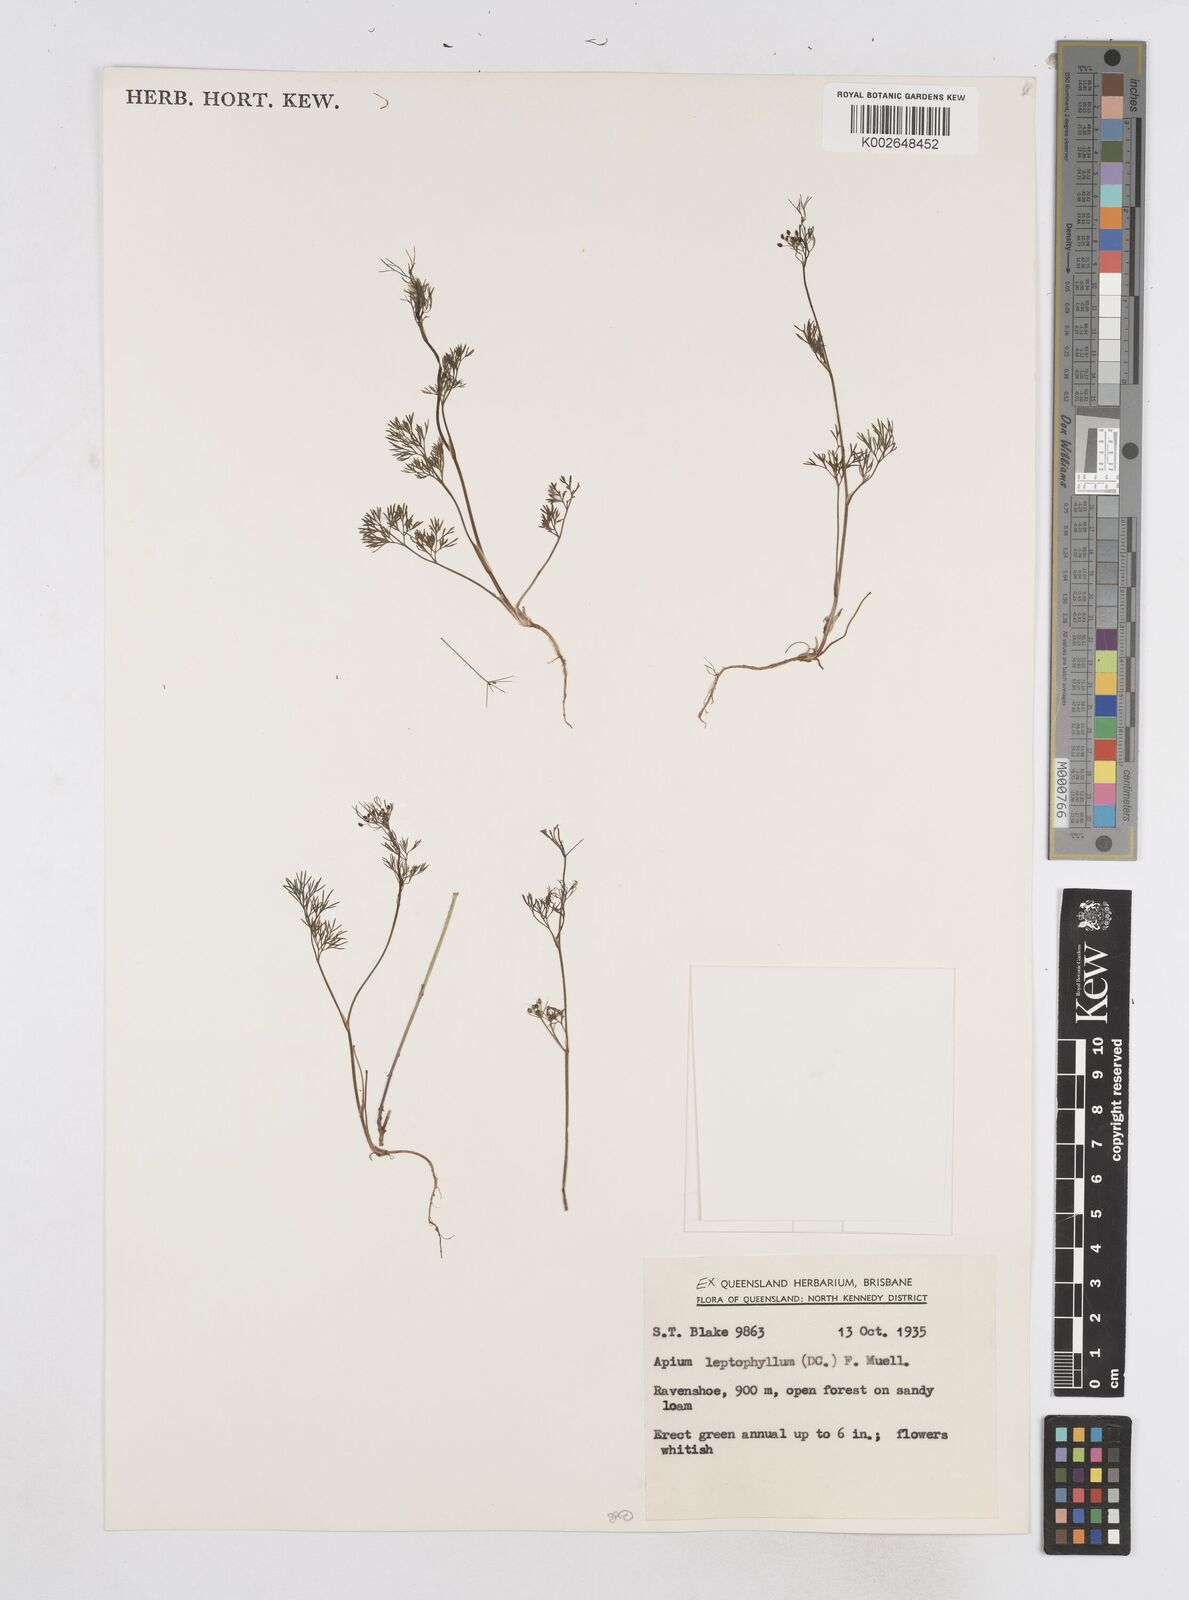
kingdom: Plantae
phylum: Tracheophyta
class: Magnoliopsida
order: Apiales
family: Apiaceae
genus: Cyclospermum
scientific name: Cyclospermum leptophyllum
